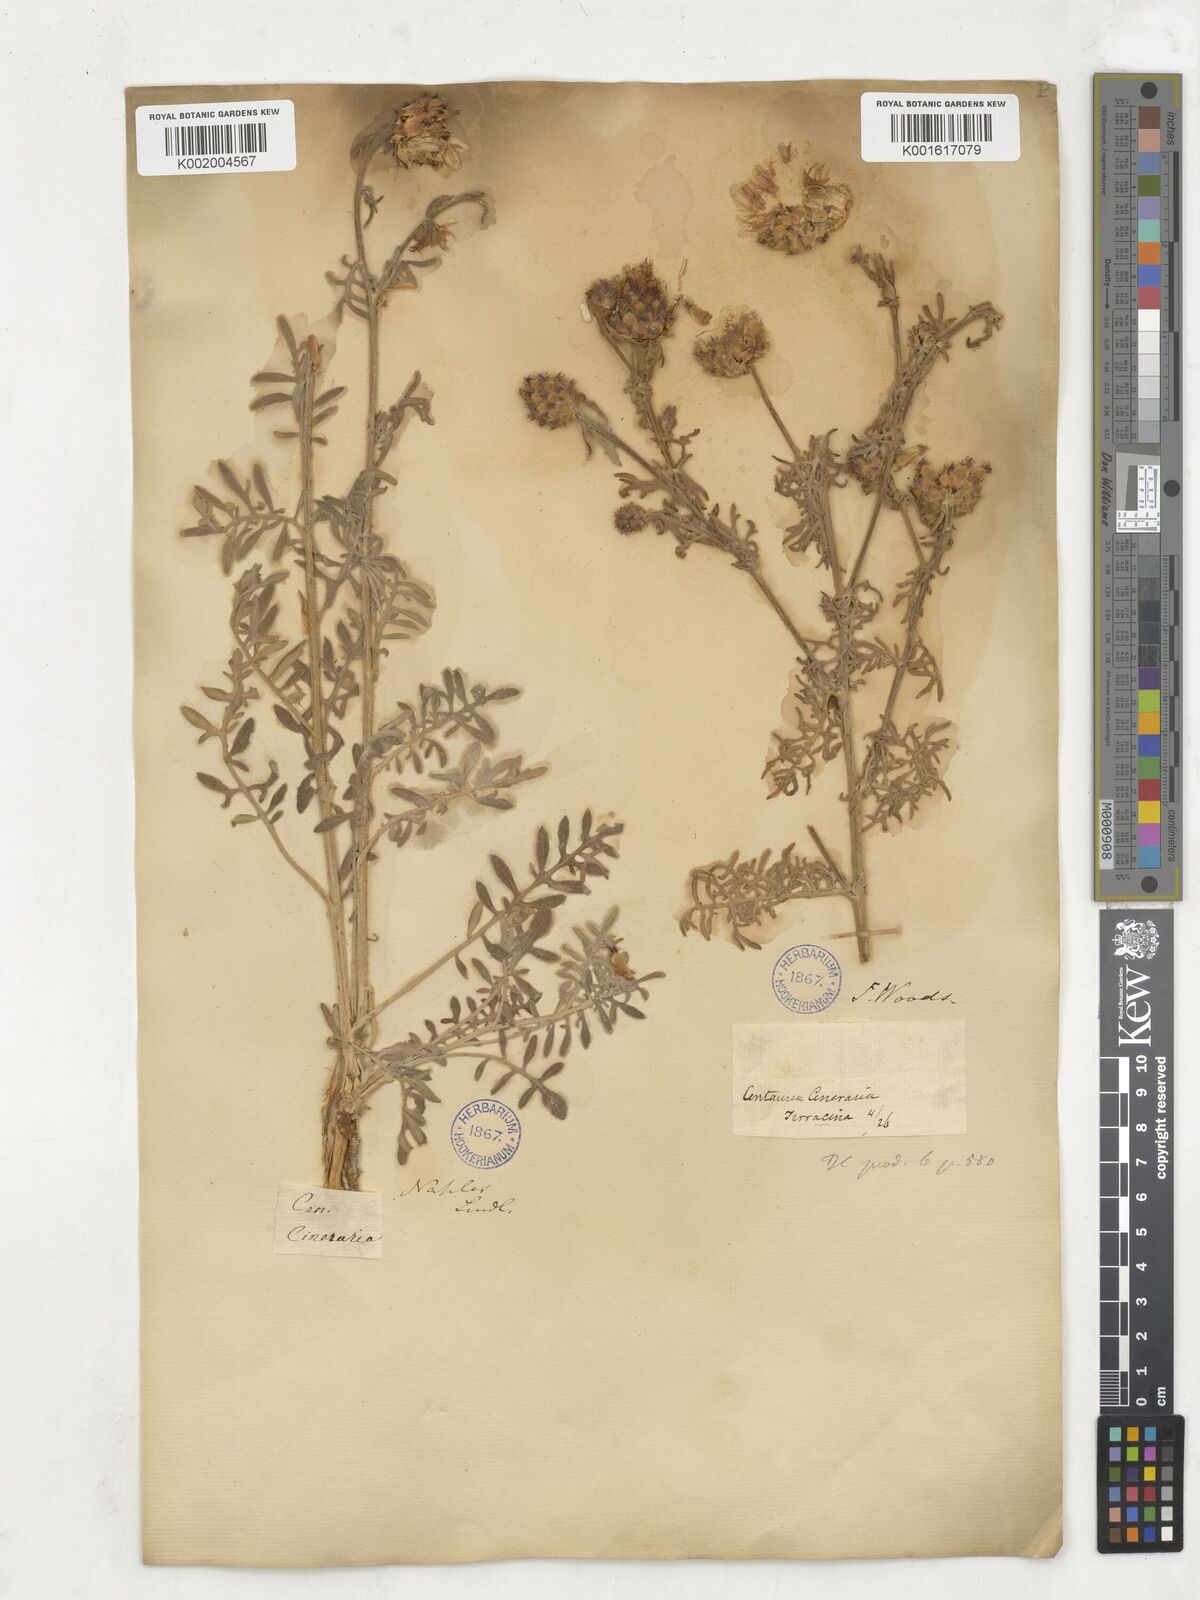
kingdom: Plantae
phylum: Tracheophyta
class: Magnoliopsida
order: Asterales
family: Asteraceae
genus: Centaurea
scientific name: Centaurea cineraria
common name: Dusty miller
